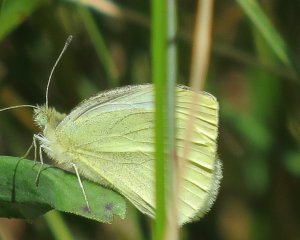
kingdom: Animalia
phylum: Arthropoda
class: Insecta
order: Lepidoptera
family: Pieridae
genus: Pieris
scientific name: Pieris rapae
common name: Cabbage White
